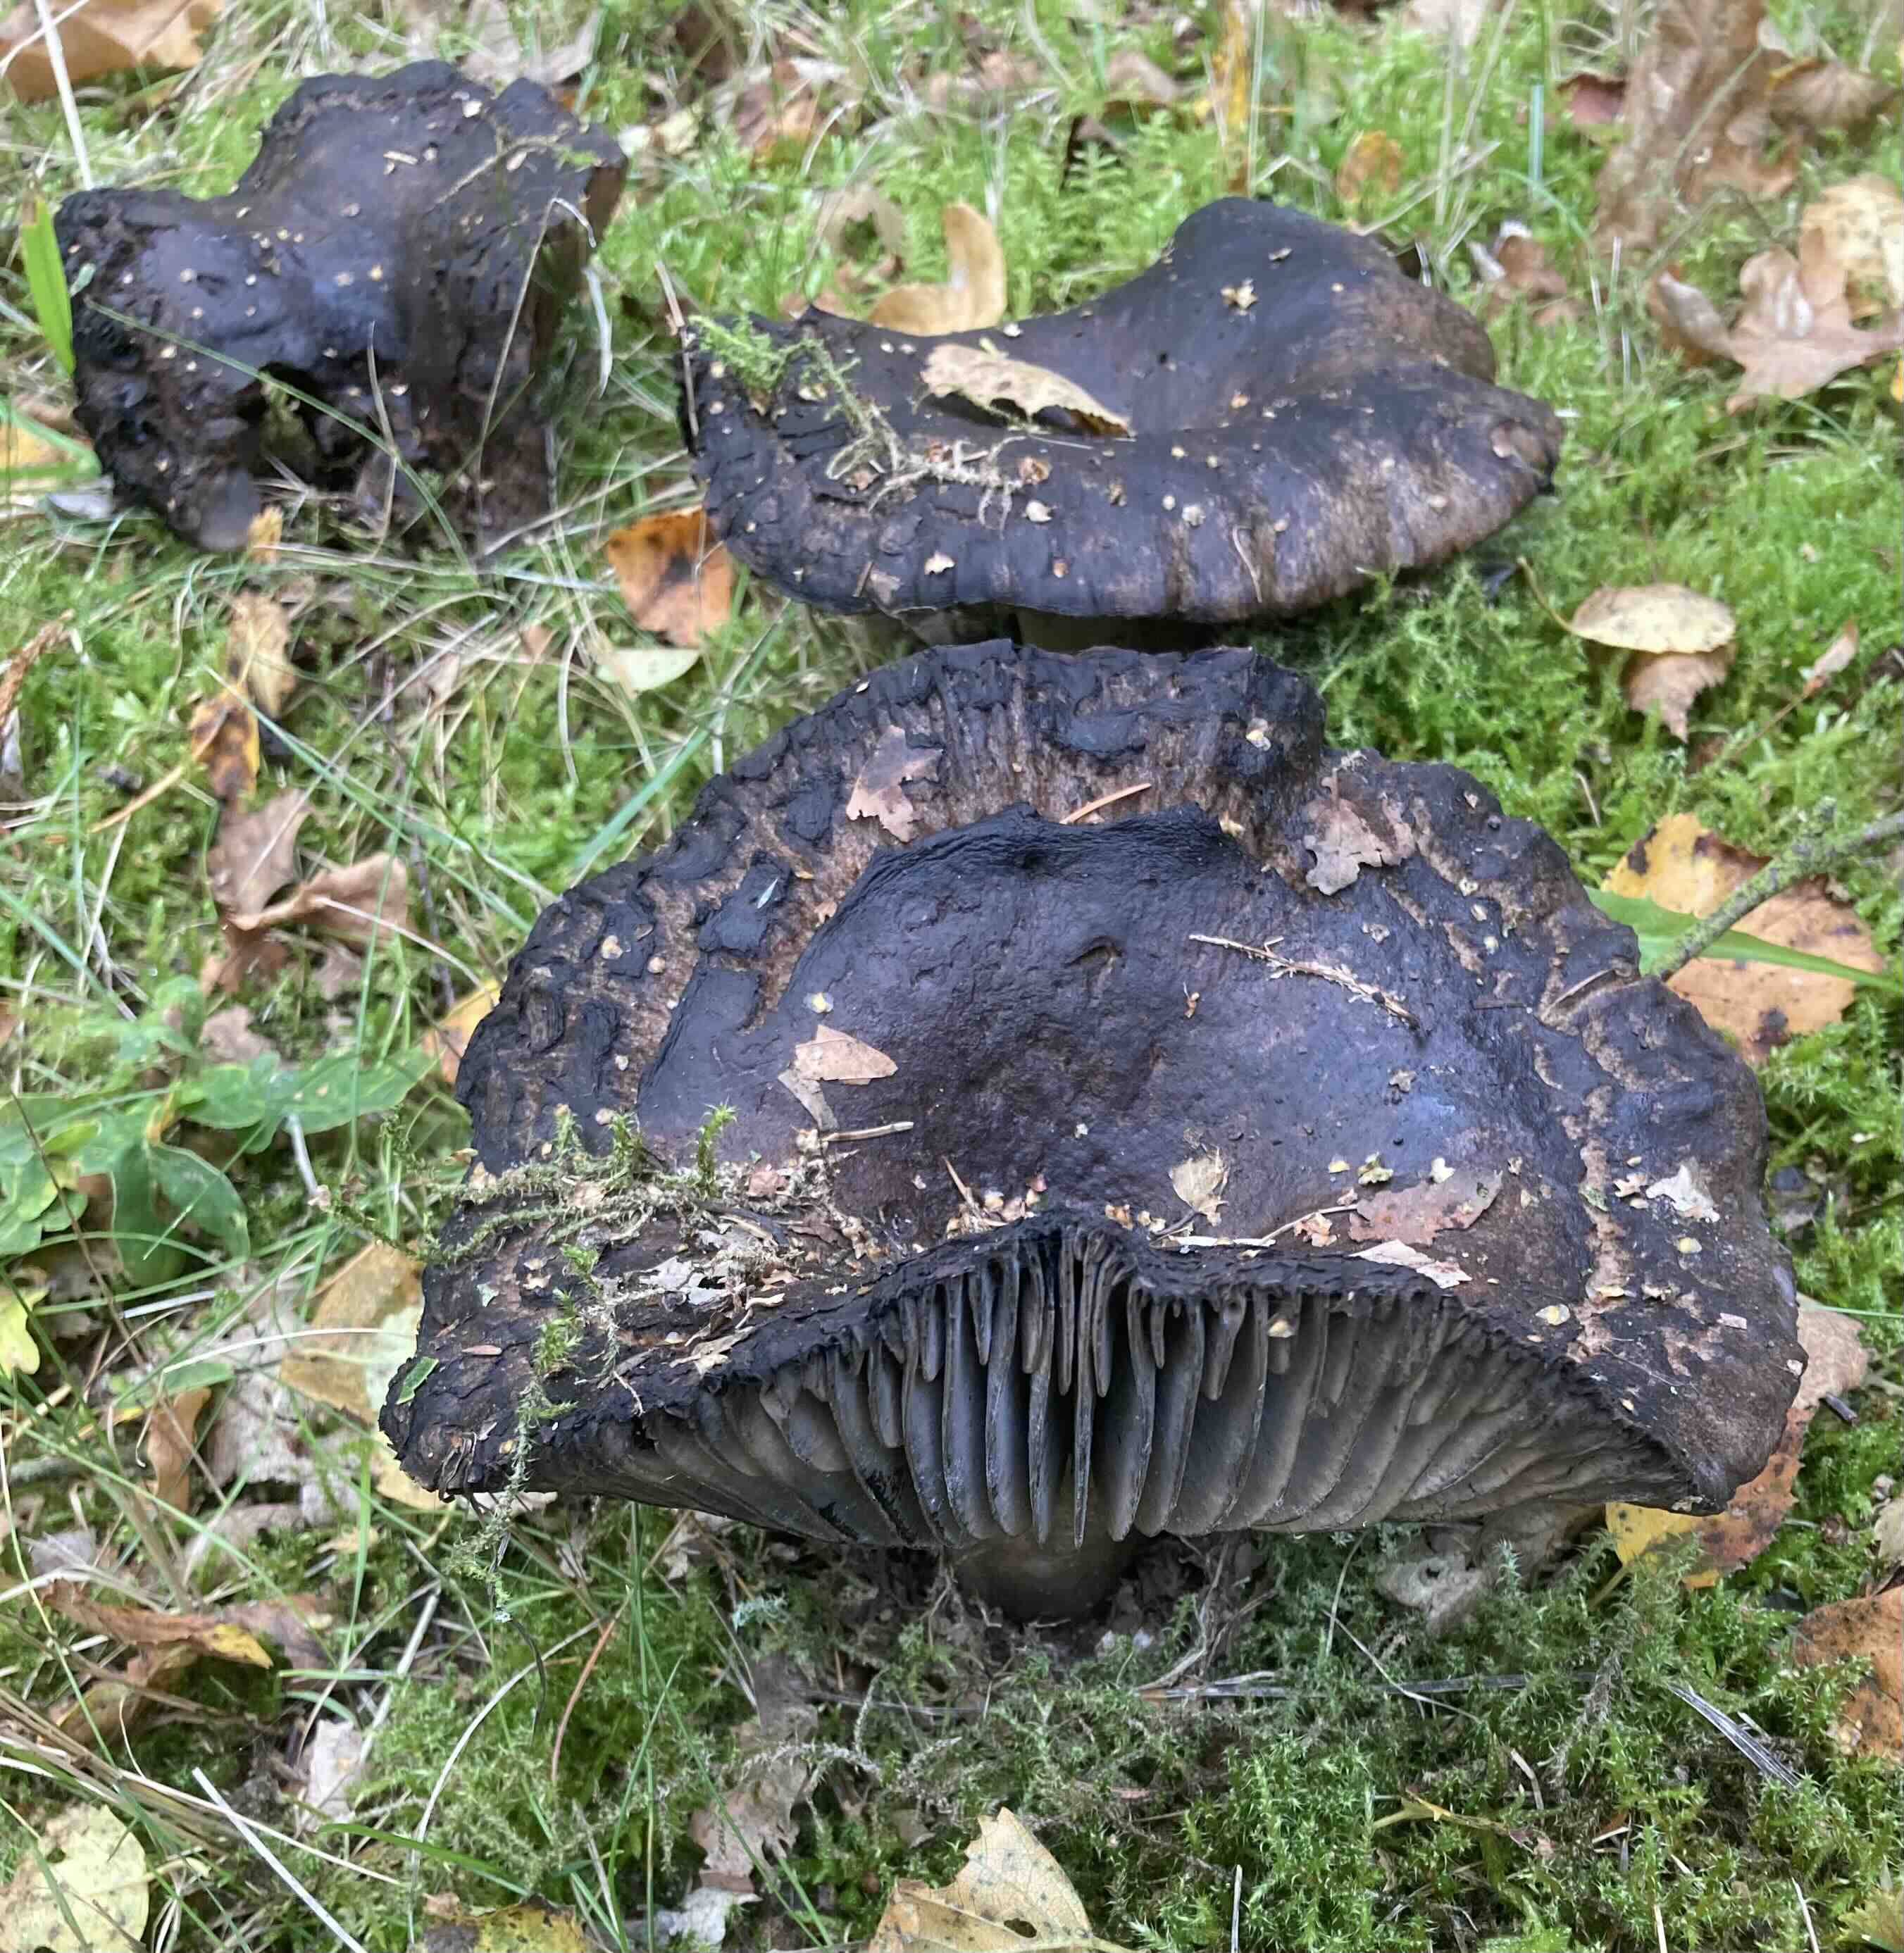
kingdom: Fungi
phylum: Basidiomycota
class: Agaricomycetes
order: Russulales
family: Russulaceae
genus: Russula
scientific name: Russula adusta
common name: sværtende skørhat
